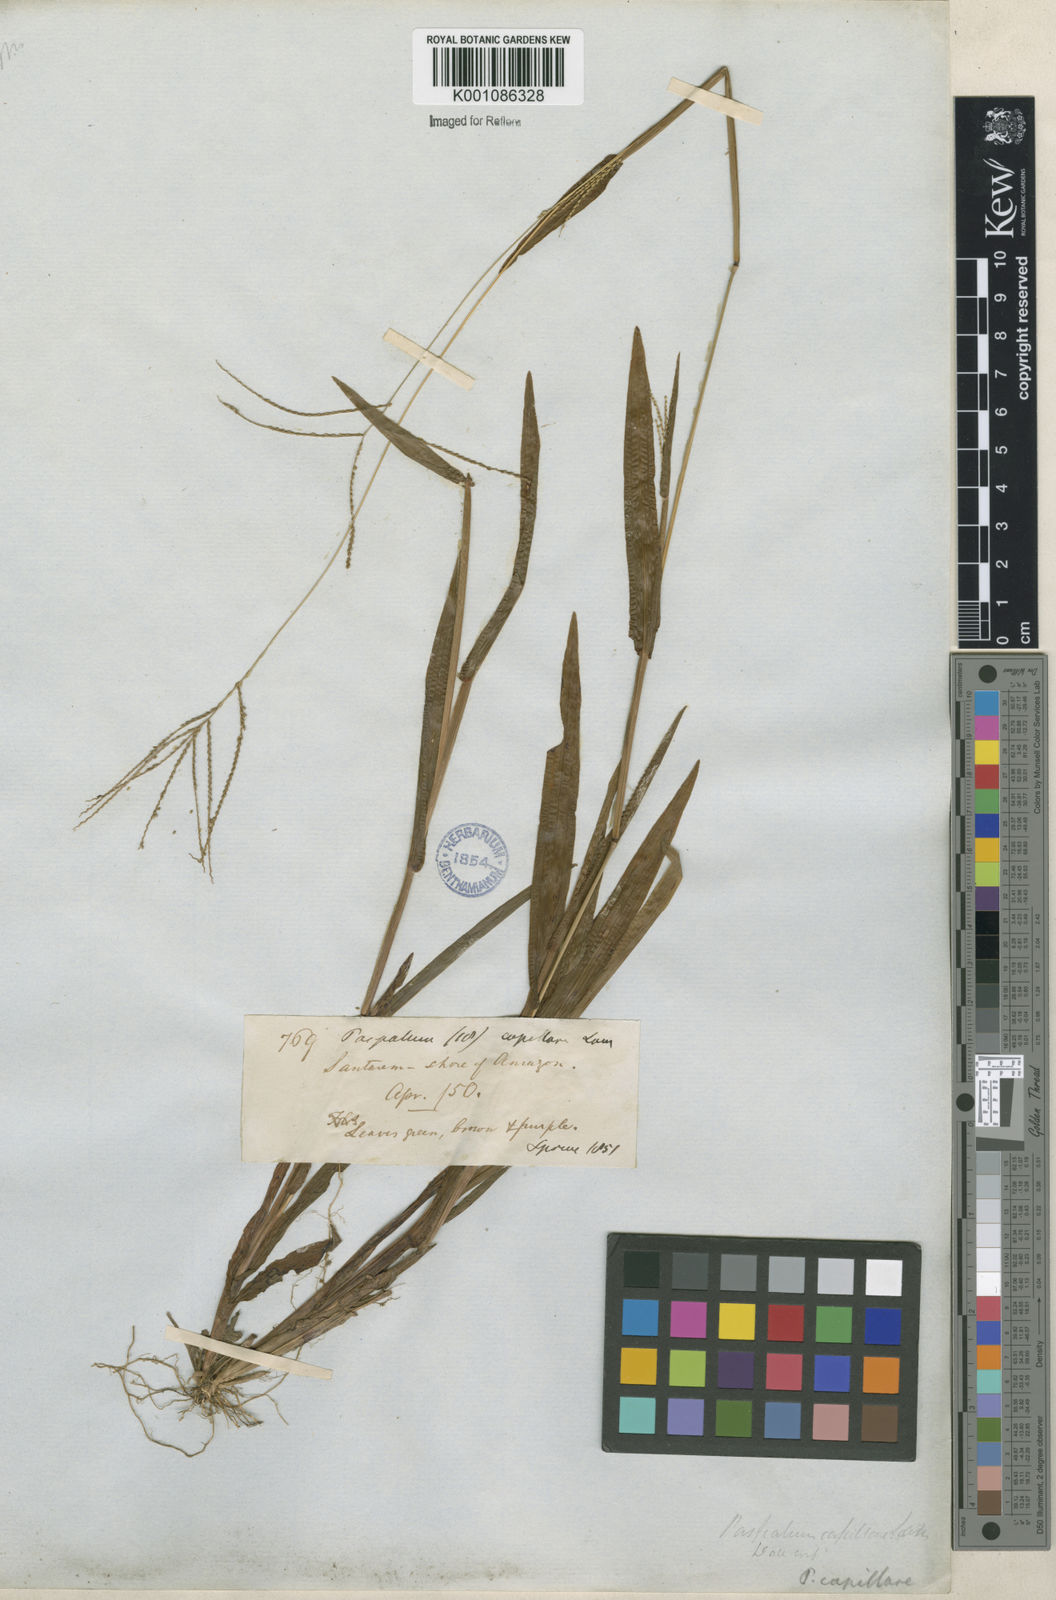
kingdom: Plantae
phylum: Tracheophyta
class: Liliopsida
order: Poales
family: Poaceae
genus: Axonopus
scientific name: Axonopus capillaris
